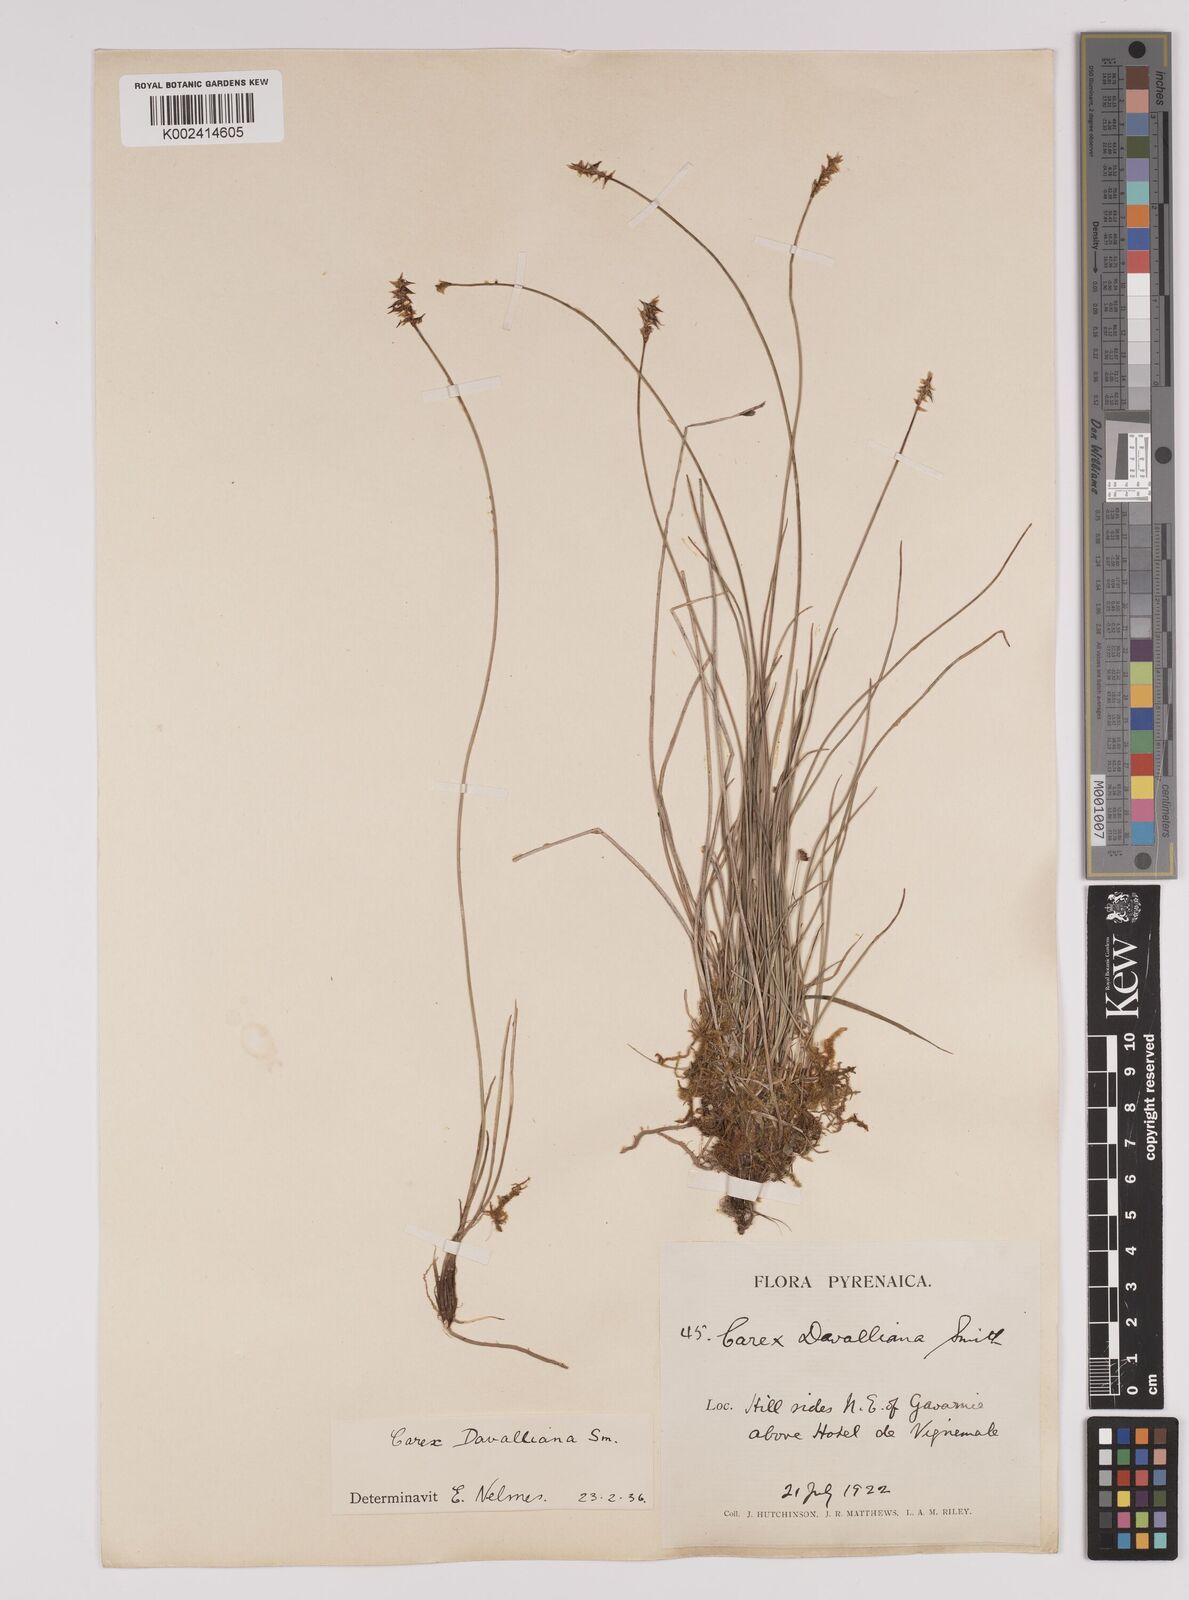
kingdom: Plantae
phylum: Tracheophyta
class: Liliopsida
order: Poales
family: Cyperaceae
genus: Carex
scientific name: Carex davalliana
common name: Davall's sedge
